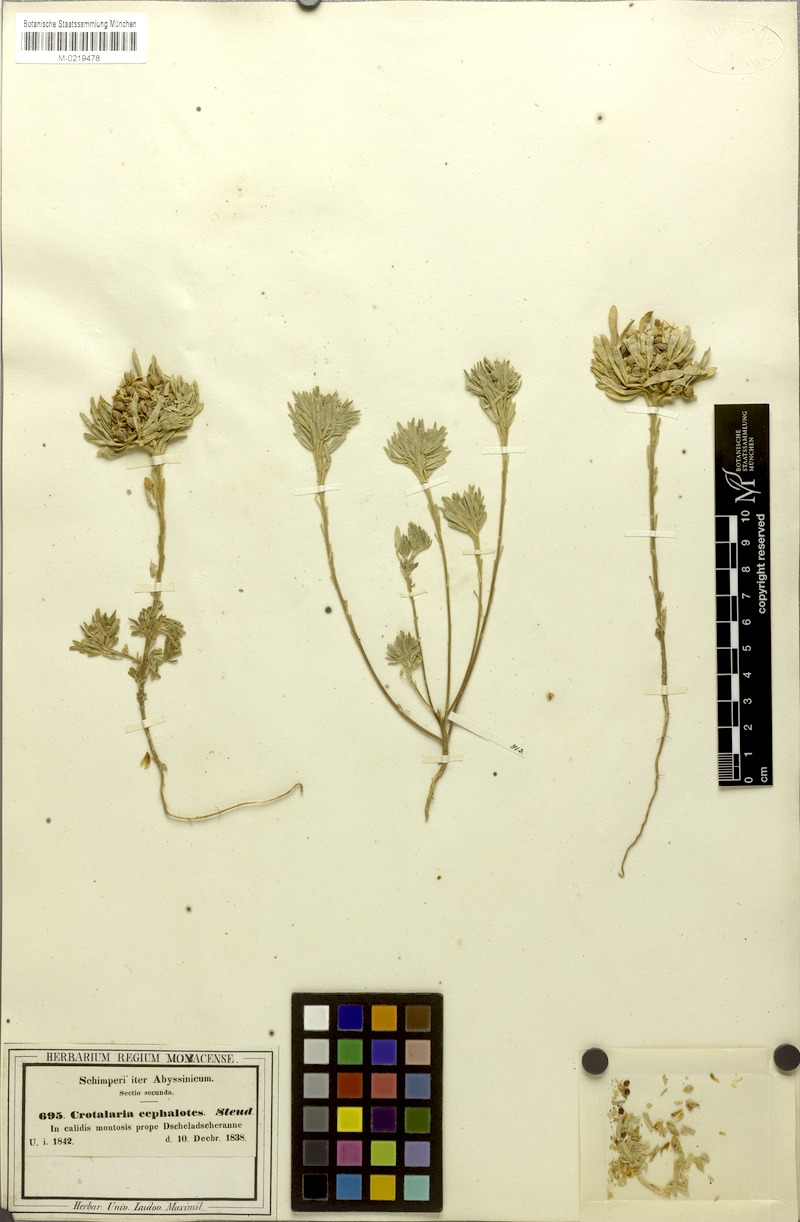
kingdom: Plantae
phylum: Tracheophyta
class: Magnoliopsida
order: Fabales
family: Fabaceae
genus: Crotalaria
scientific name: Crotalaria cephalotes
